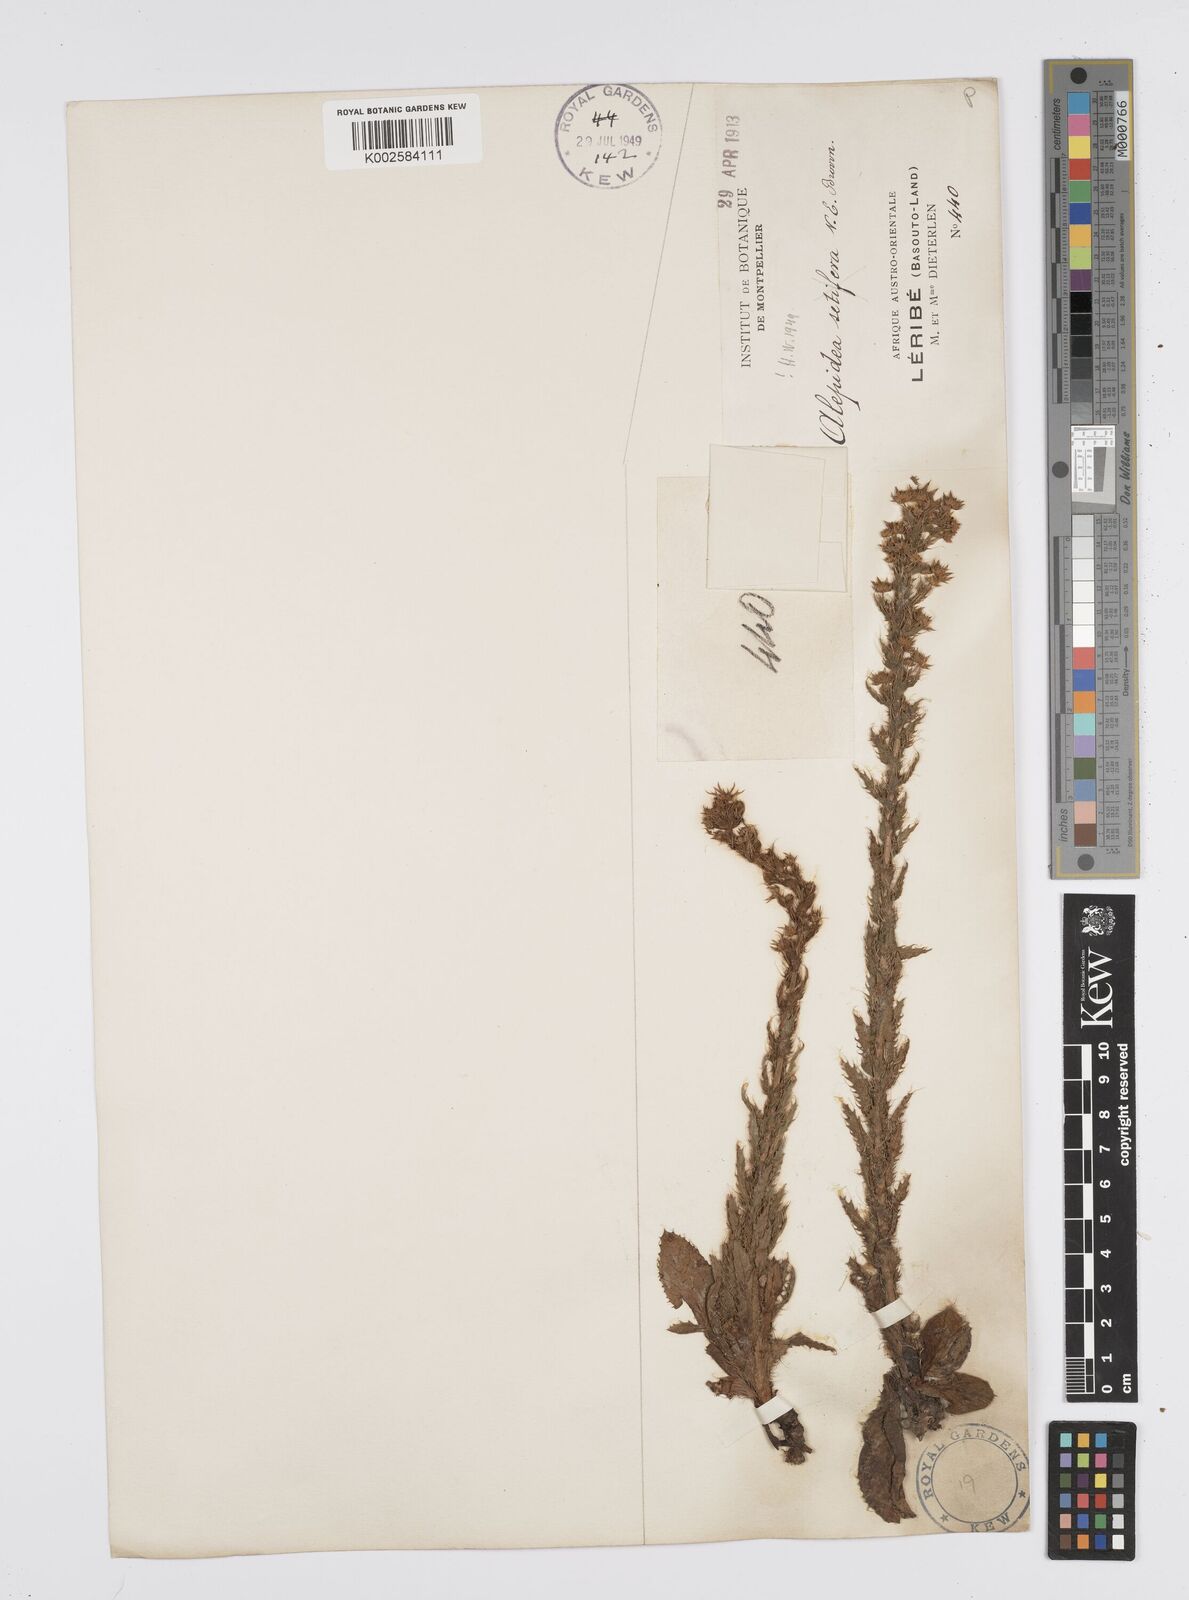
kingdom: Plantae
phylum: Tracheophyta
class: Magnoliopsida
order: Apiales
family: Apiaceae
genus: Alepidea
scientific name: Alepidea setifera
